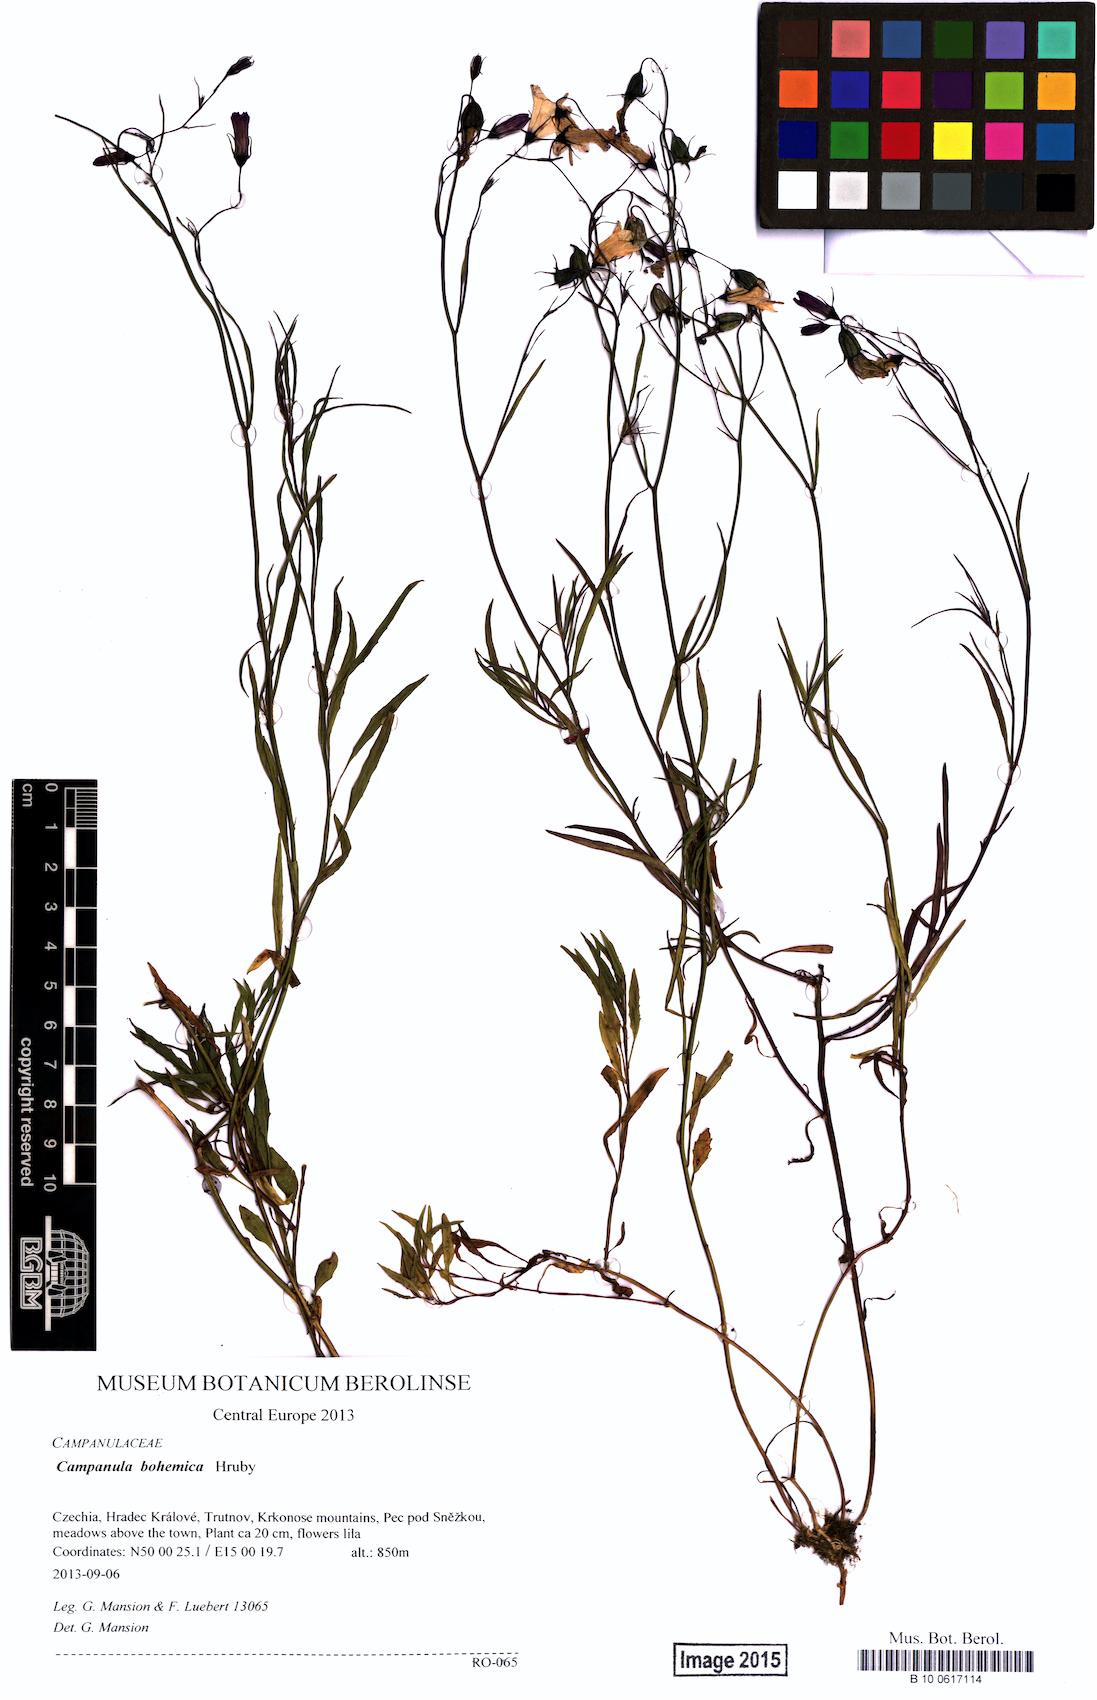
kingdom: Plantae
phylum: Tracheophyta
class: Magnoliopsida
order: Asterales
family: Campanulaceae
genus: Campanula
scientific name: Campanula bohemica
